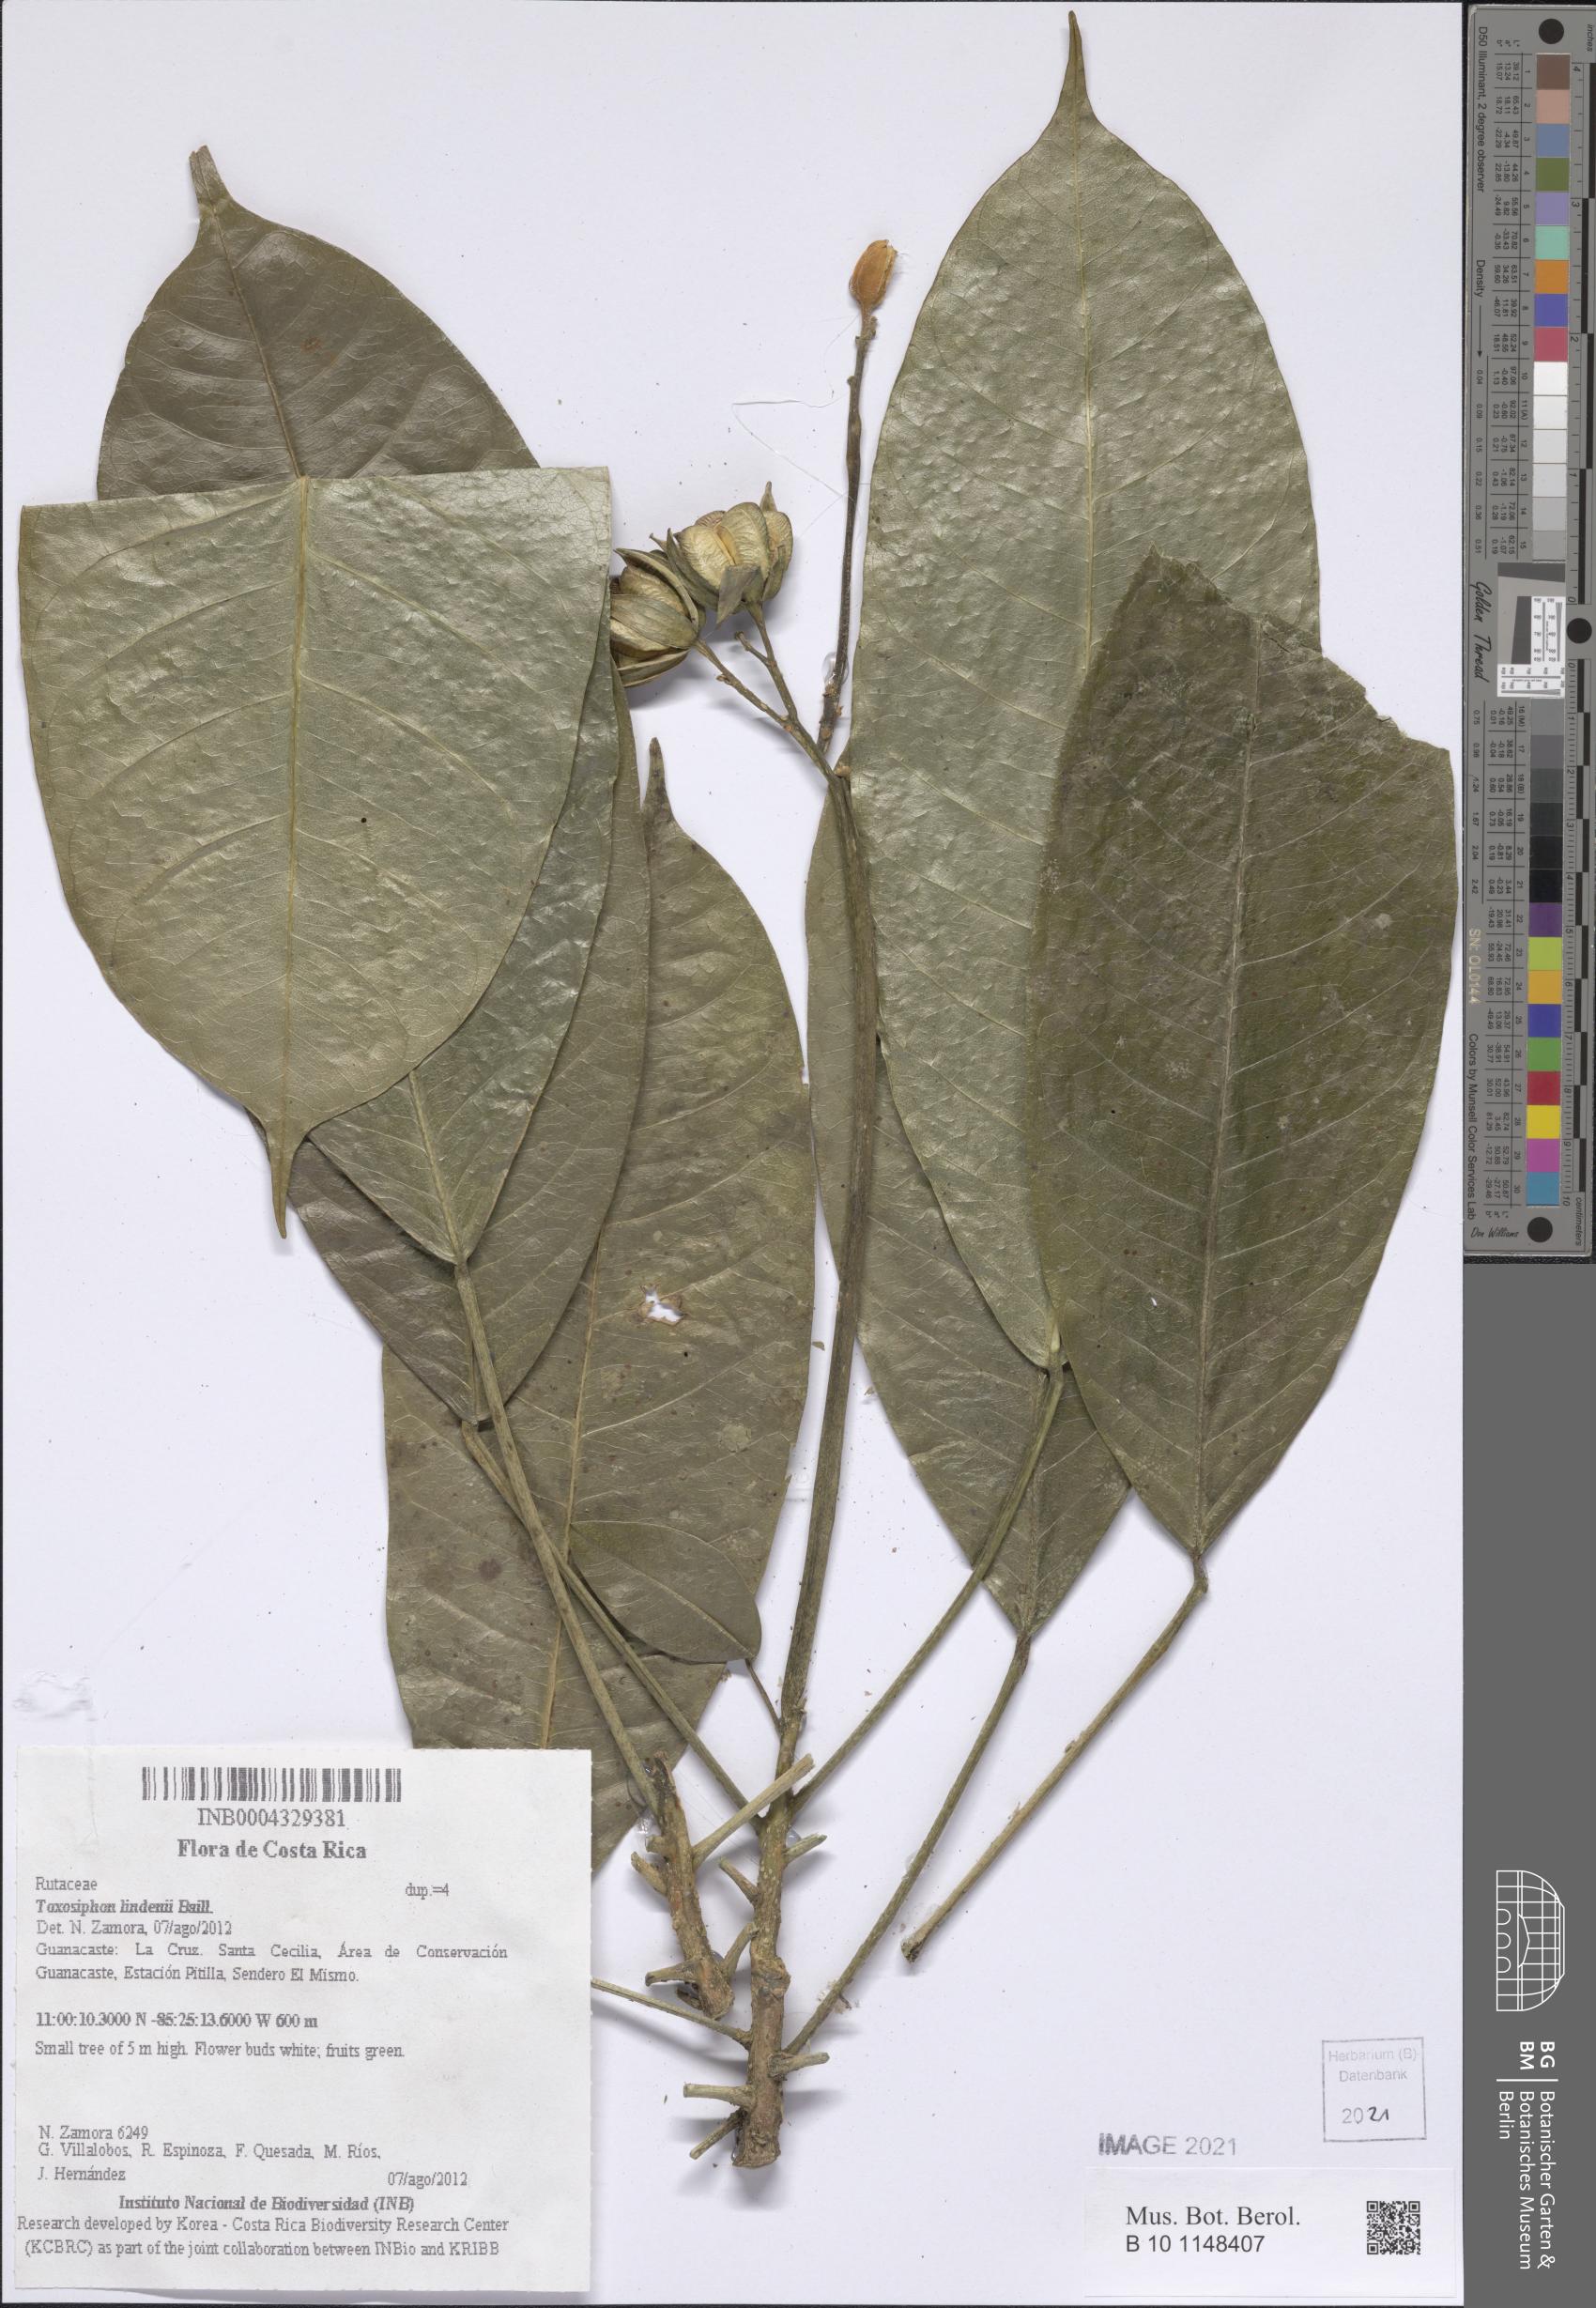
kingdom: Plantae
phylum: Tracheophyta
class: Magnoliopsida
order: Sapindales
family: Rutaceae
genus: Toxosiphon
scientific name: Toxosiphon lindenii
